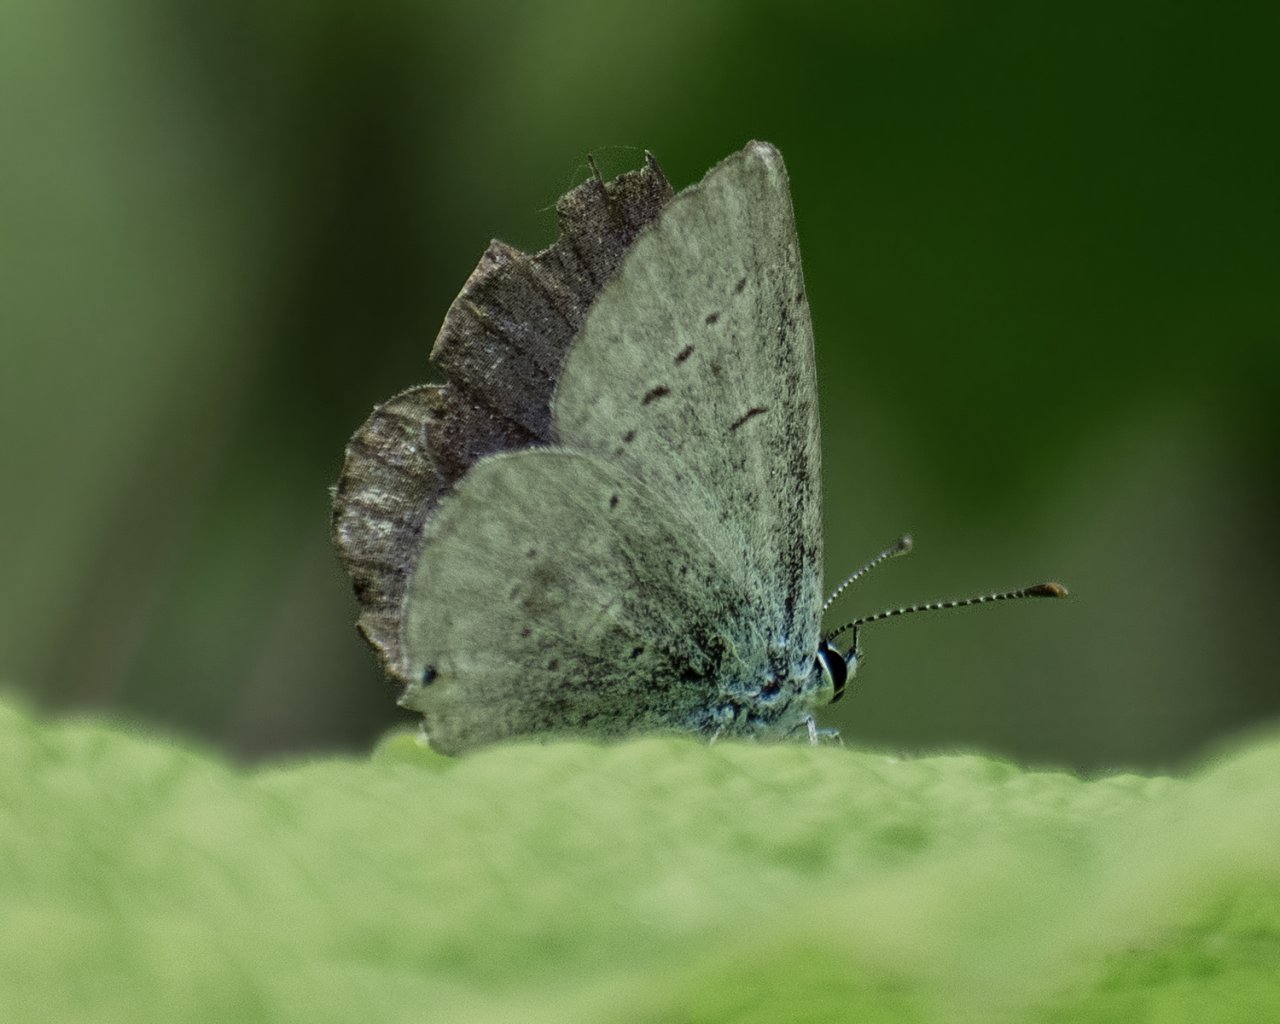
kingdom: Animalia
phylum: Arthropoda
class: Insecta
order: Lepidoptera
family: Lycaenidae
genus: Elkalyce
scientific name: Elkalyce amyntula
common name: Western Tailed-Blue
